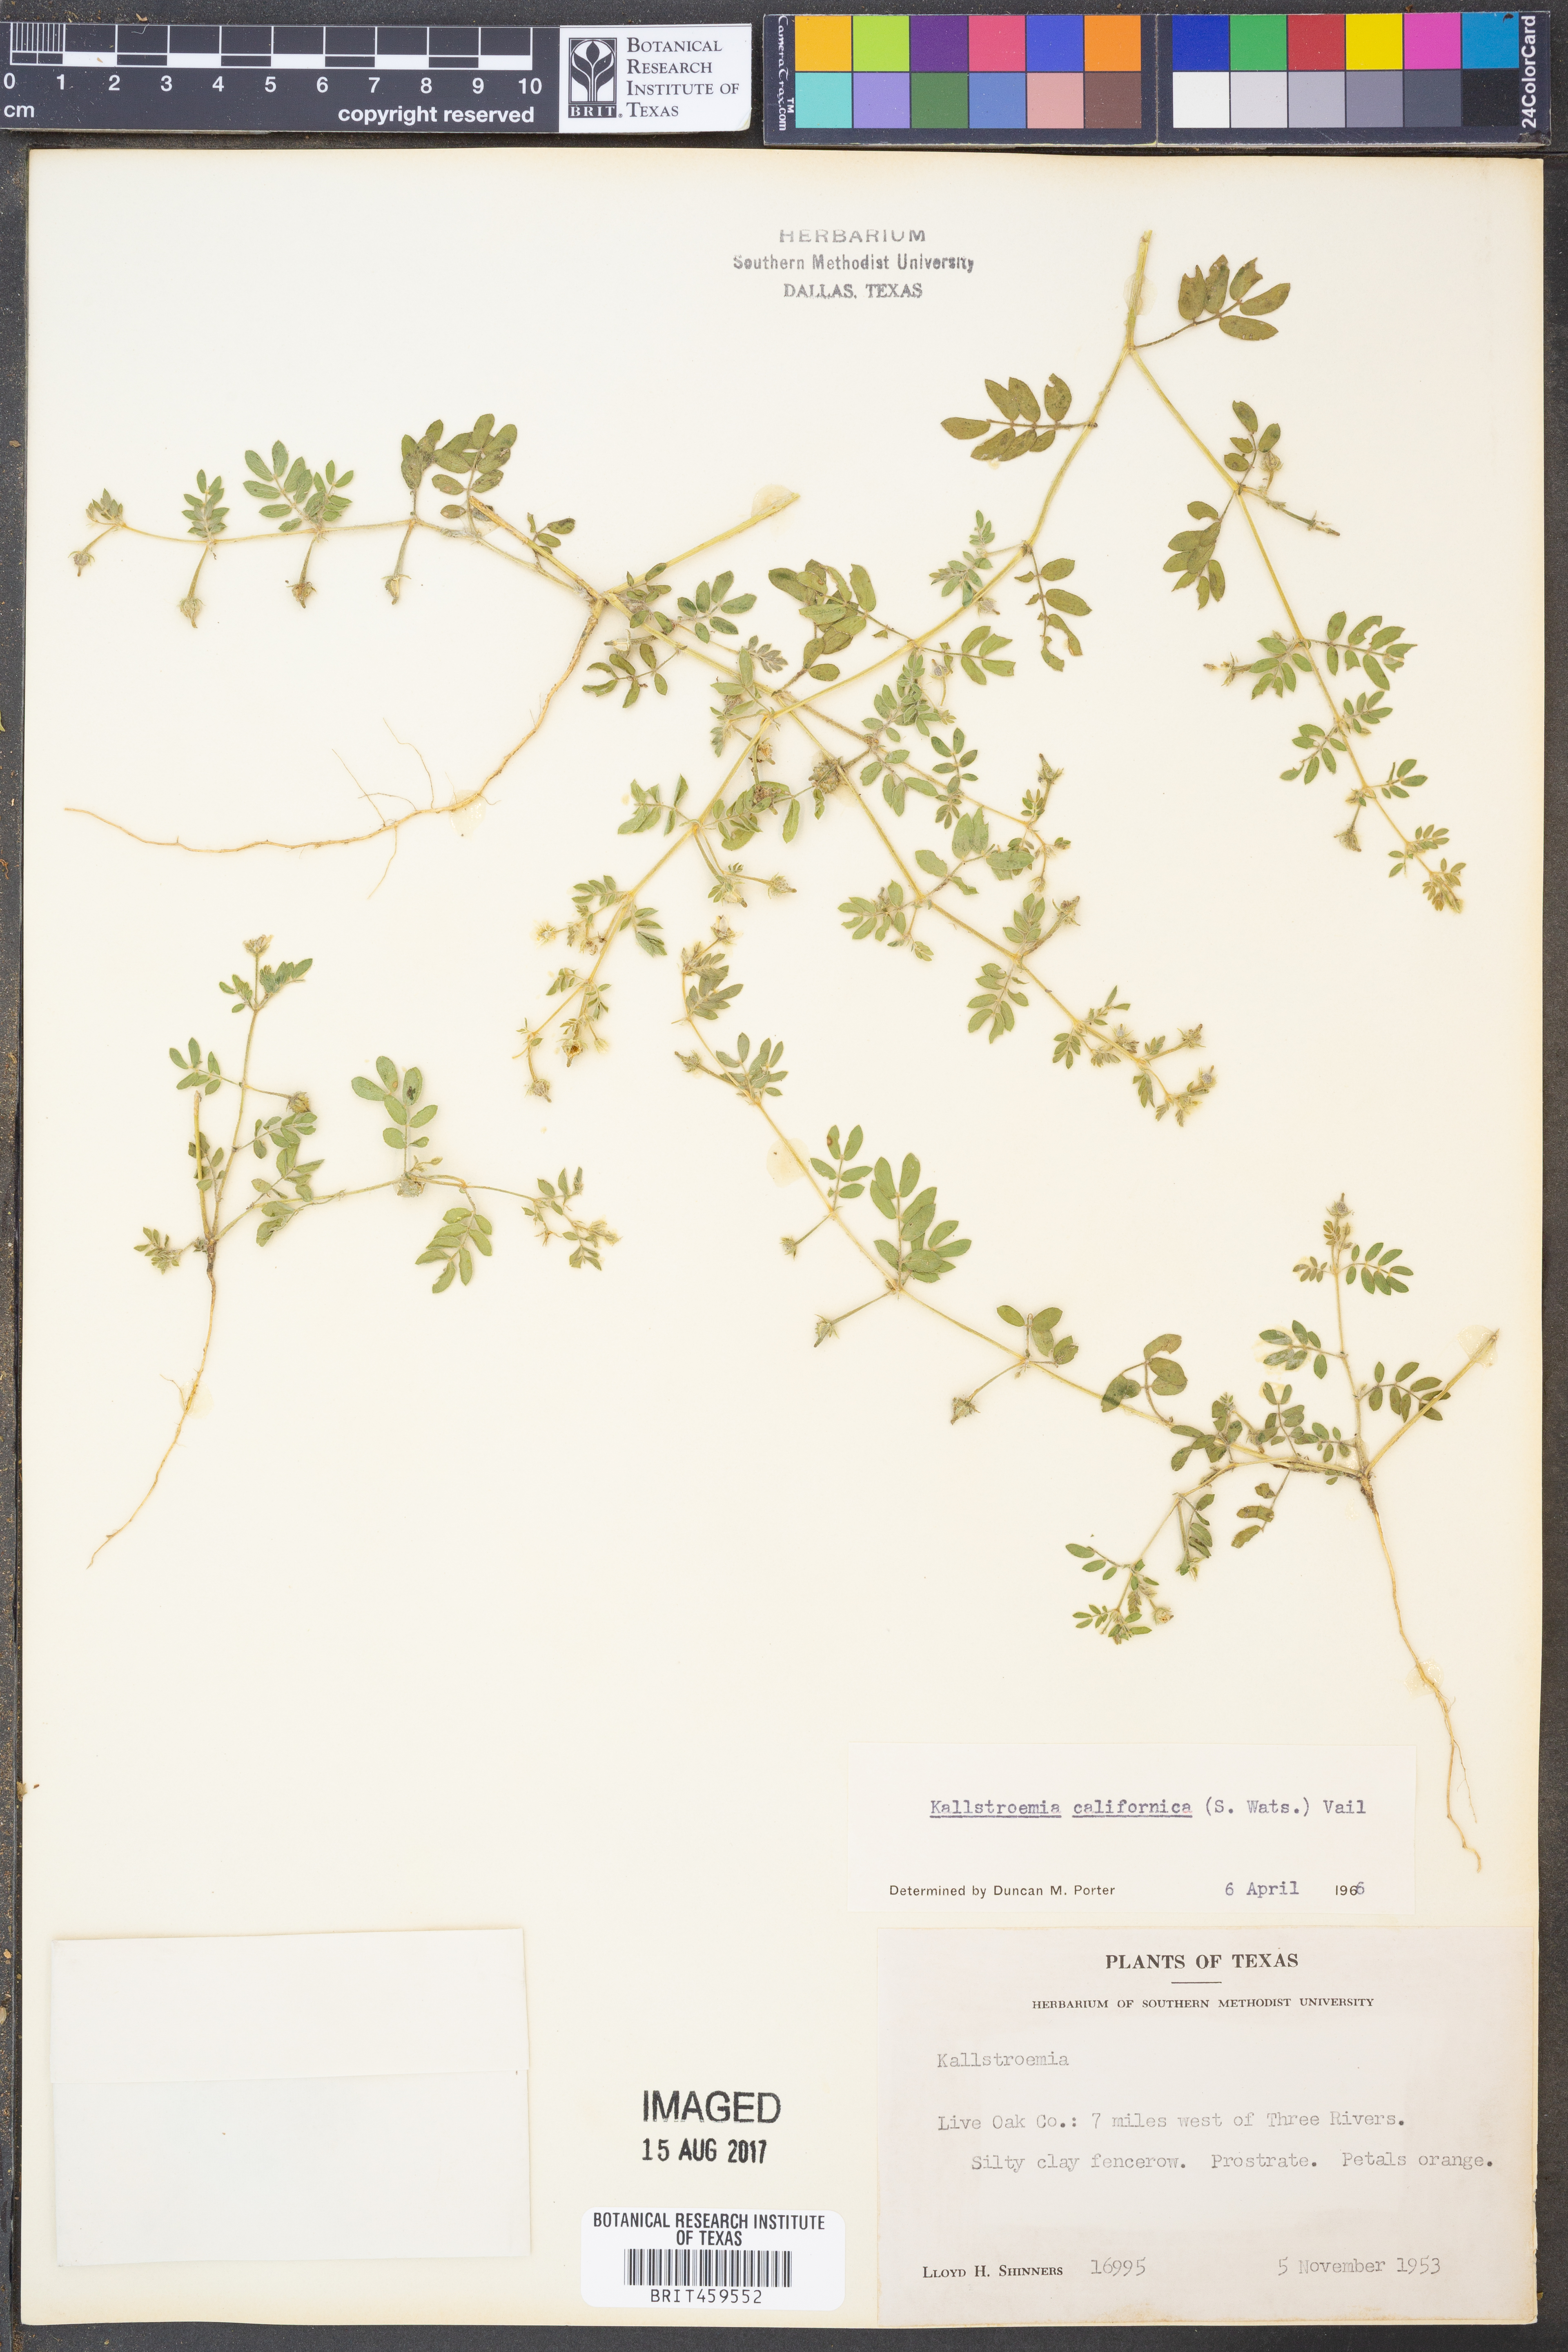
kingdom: Plantae
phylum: Tracheophyta
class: Magnoliopsida
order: Zygophyllales
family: Zygophyllaceae
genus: Kallstroemia
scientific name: Kallstroemia californica
